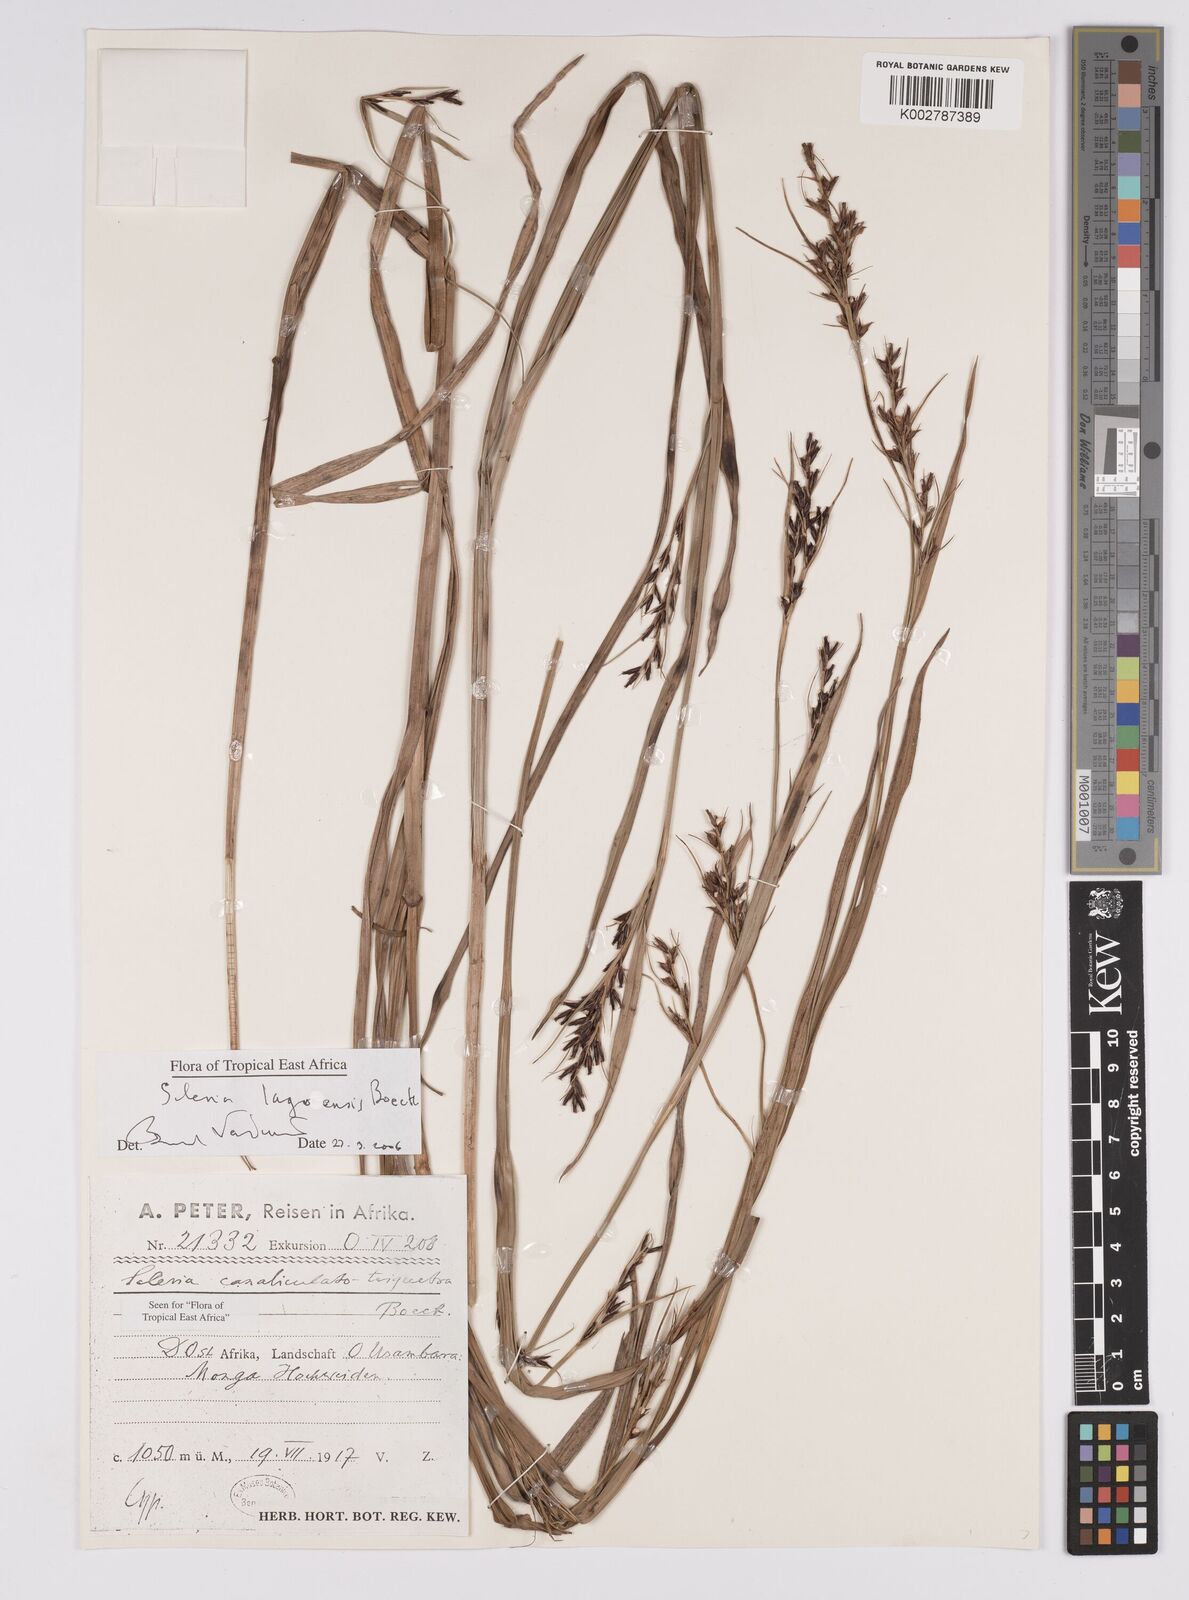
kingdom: Plantae
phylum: Tracheophyta
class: Liliopsida
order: Poales
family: Cyperaceae
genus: Scleria
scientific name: Scleria lagoensis
